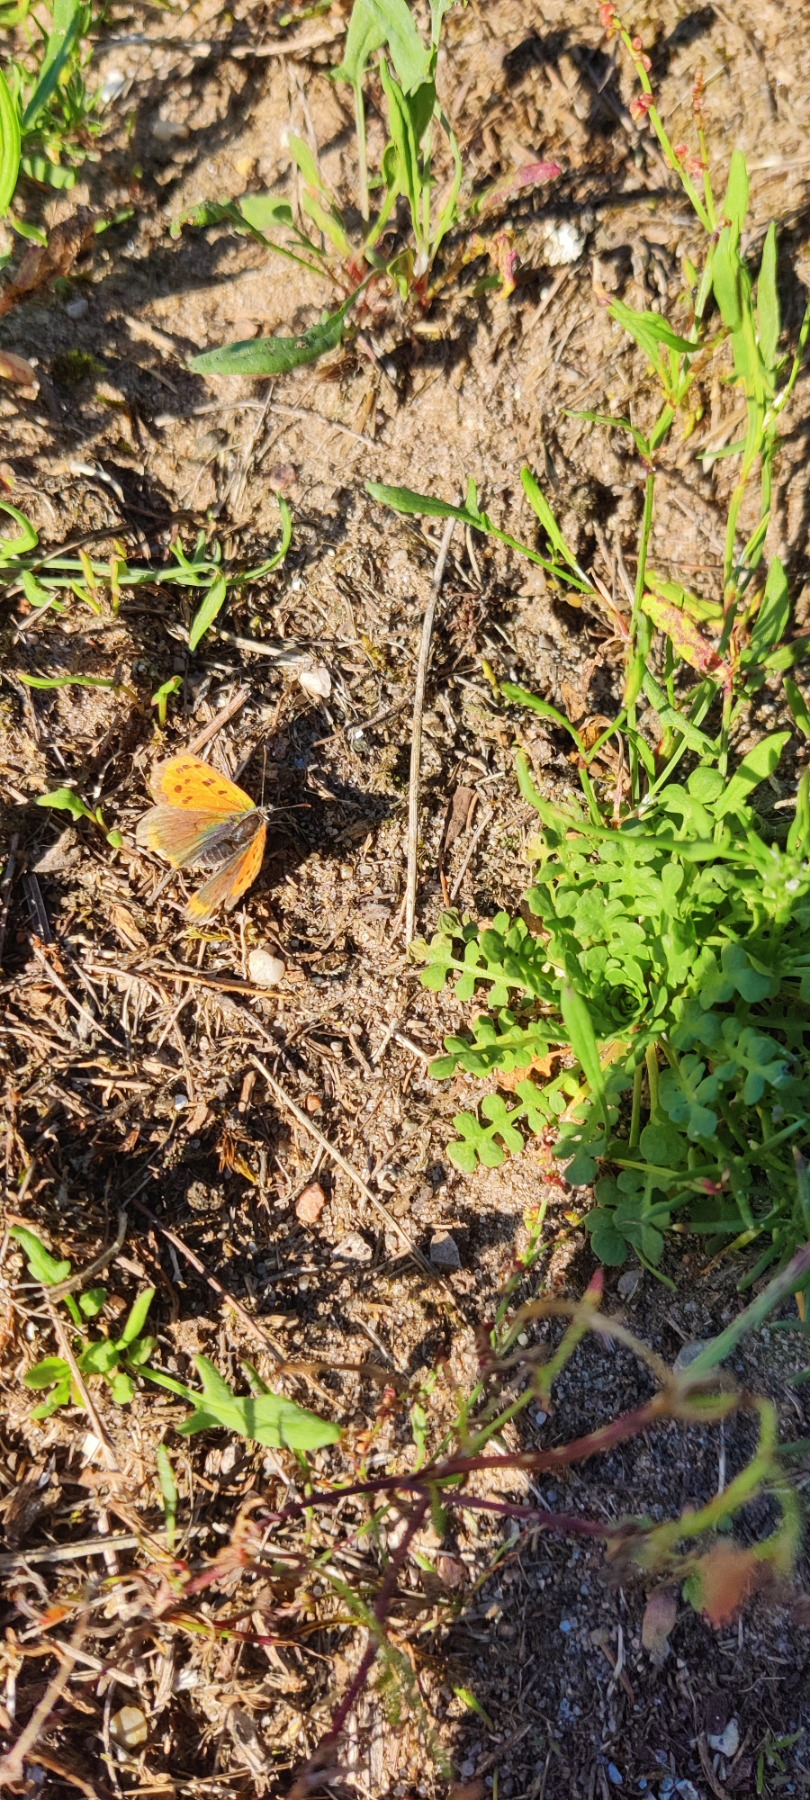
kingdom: Animalia
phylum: Arthropoda
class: Insecta
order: Lepidoptera
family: Lycaenidae
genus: Lycaena
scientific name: Lycaena phlaeas
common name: Lille ildfugl
